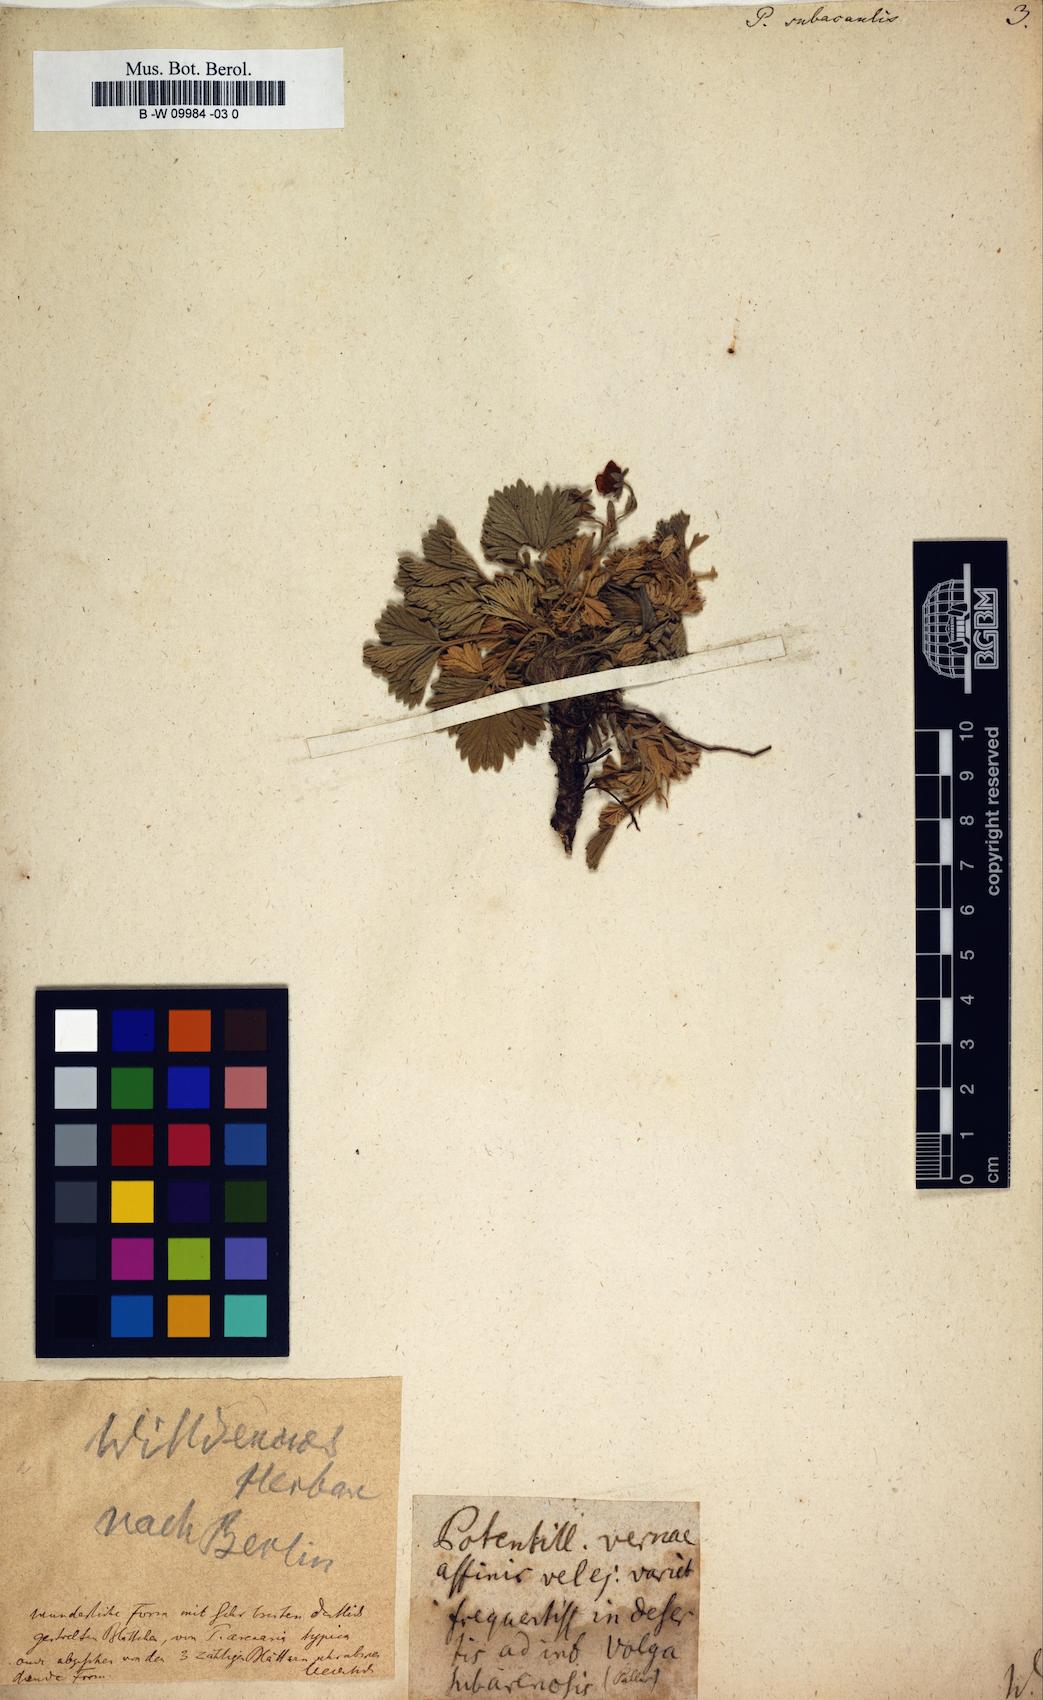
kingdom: Plantae
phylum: Tracheophyta
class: Magnoliopsida
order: Rosales
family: Rosaceae
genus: Potentilla
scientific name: Potentilla cinerea
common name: Ashy cinquefoil
